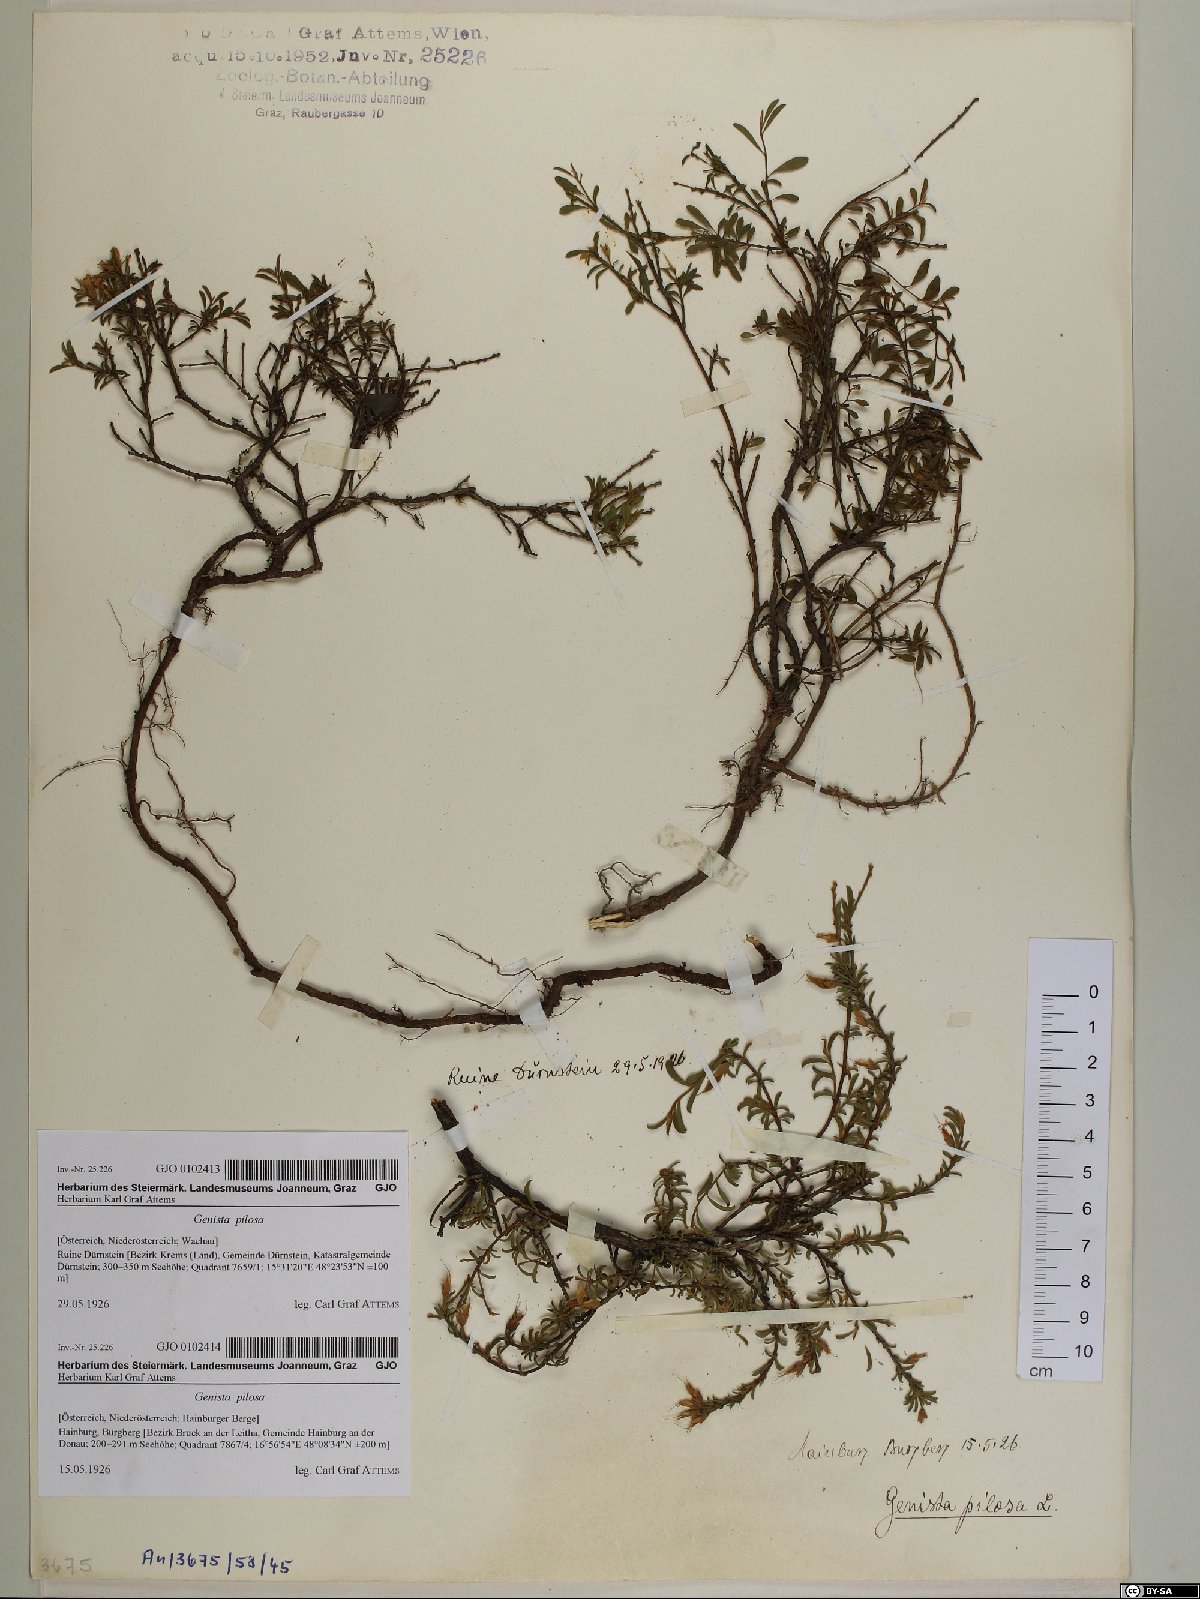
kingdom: Plantae
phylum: Tracheophyta
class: Magnoliopsida
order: Fabales
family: Fabaceae
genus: Genista
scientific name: Genista pilosa
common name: Hairy greenweed
